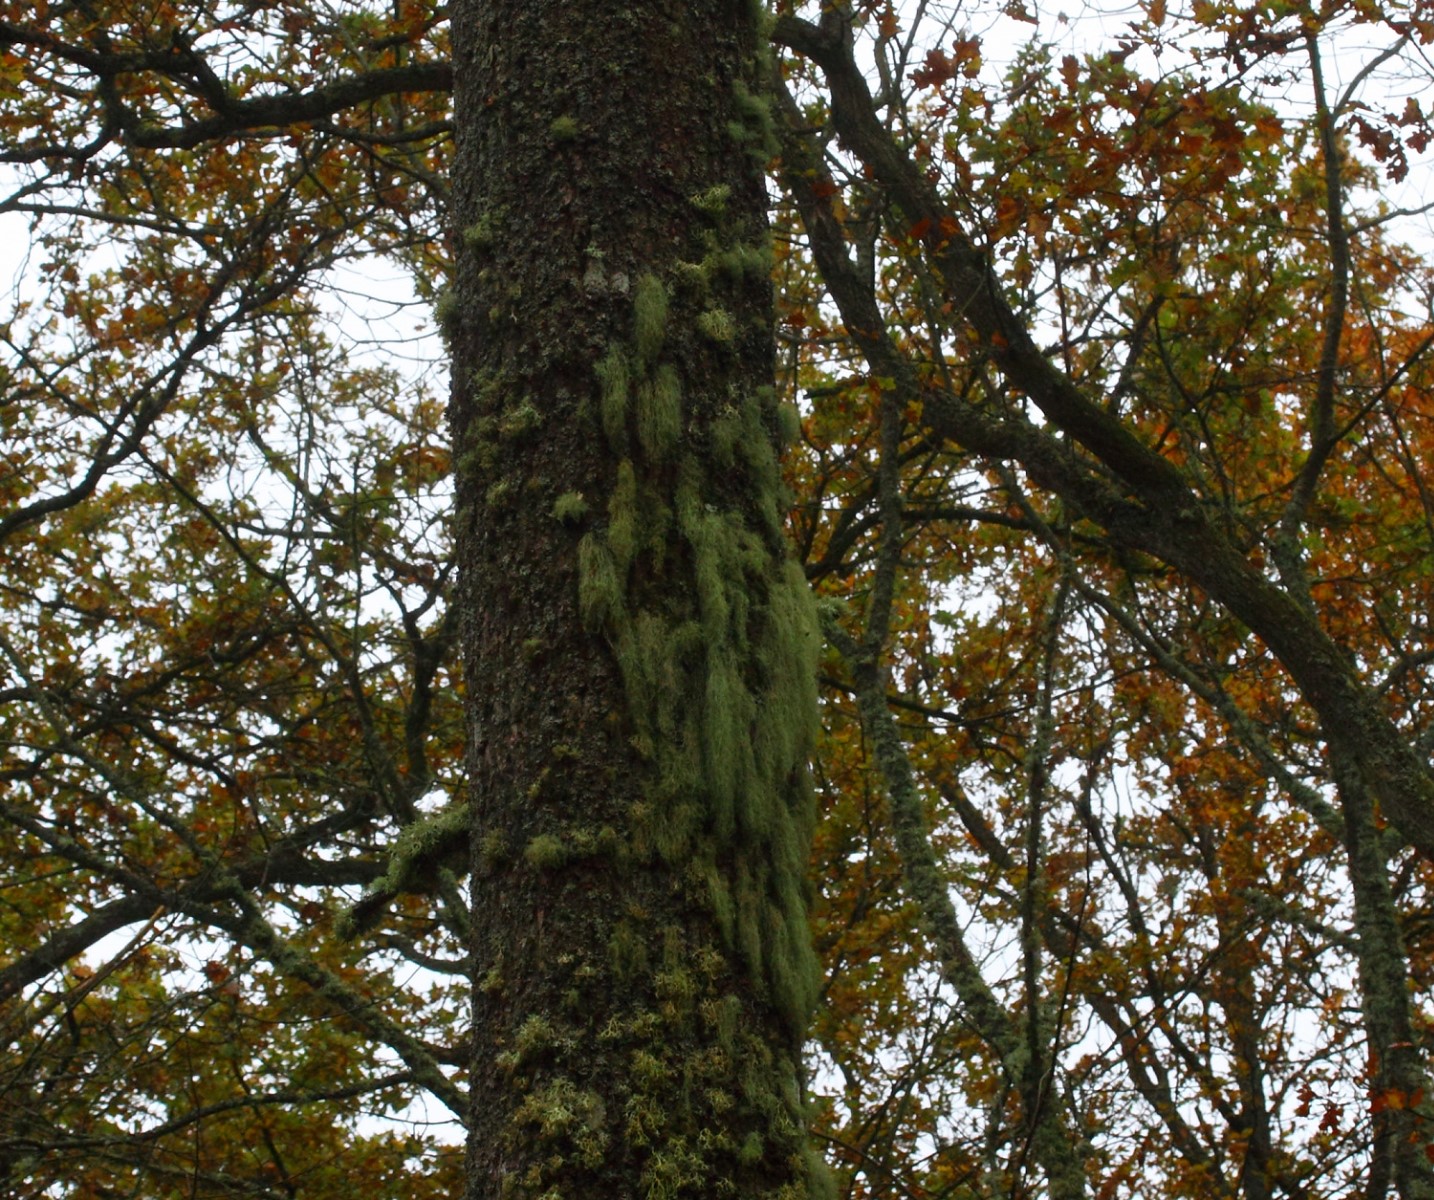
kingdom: Fungi
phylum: Ascomycota
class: Lecanoromycetes
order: Lecanorales
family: Parmeliaceae
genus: Usnea
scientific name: Usnea dasypoga
